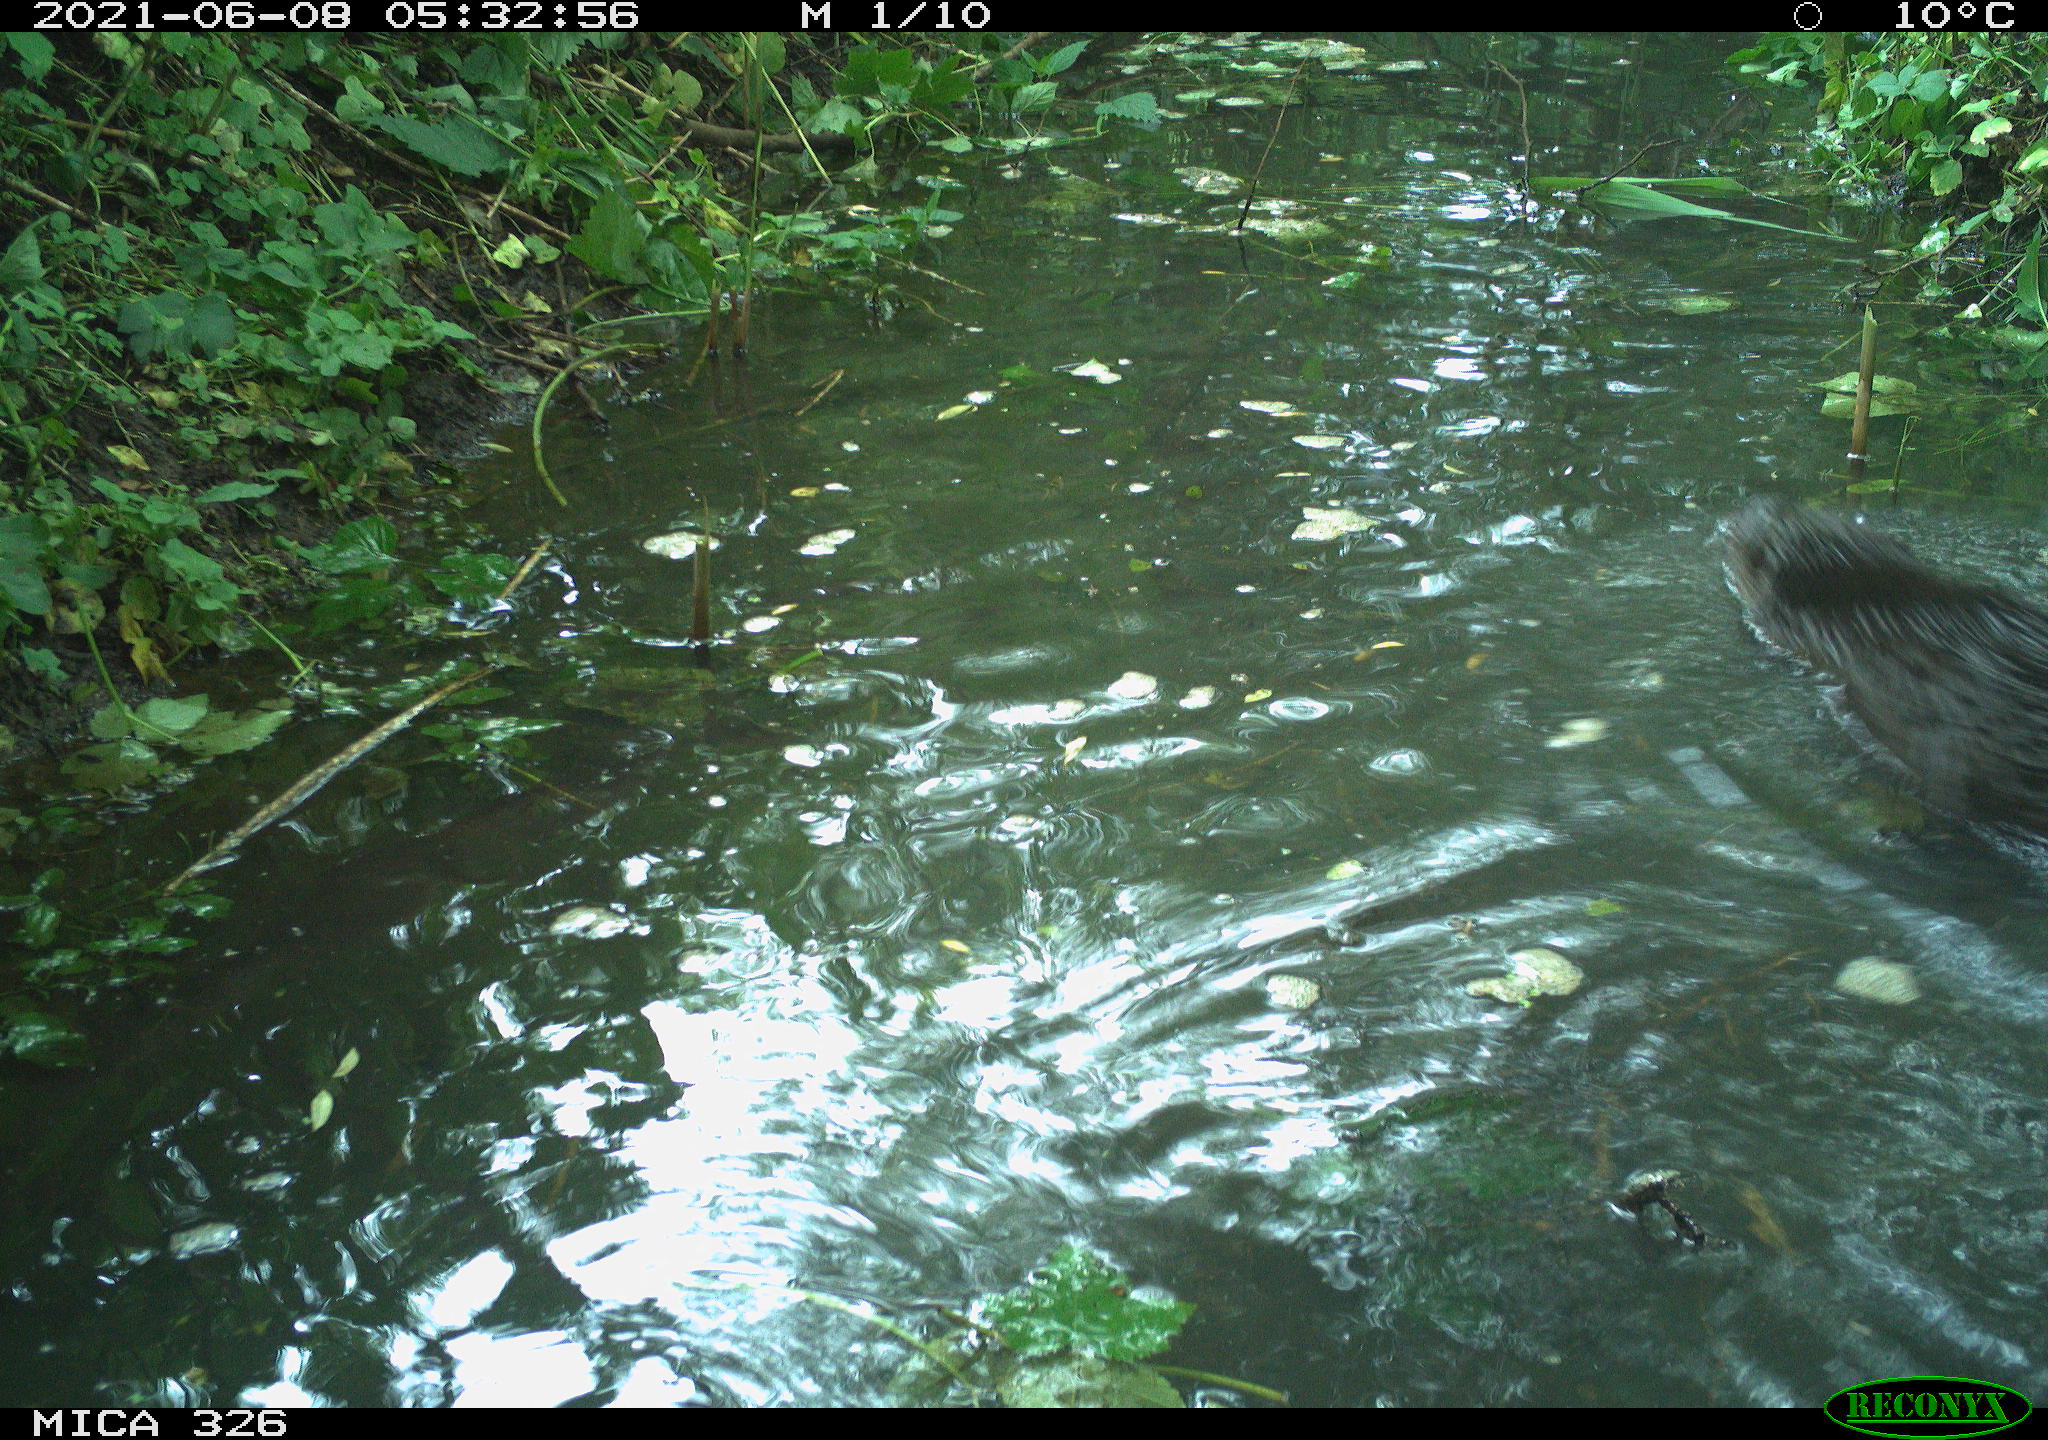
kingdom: Animalia
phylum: Chordata
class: Mammalia
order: Carnivora
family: Mustelidae
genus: Lutra
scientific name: Lutra lutra
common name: European otter
